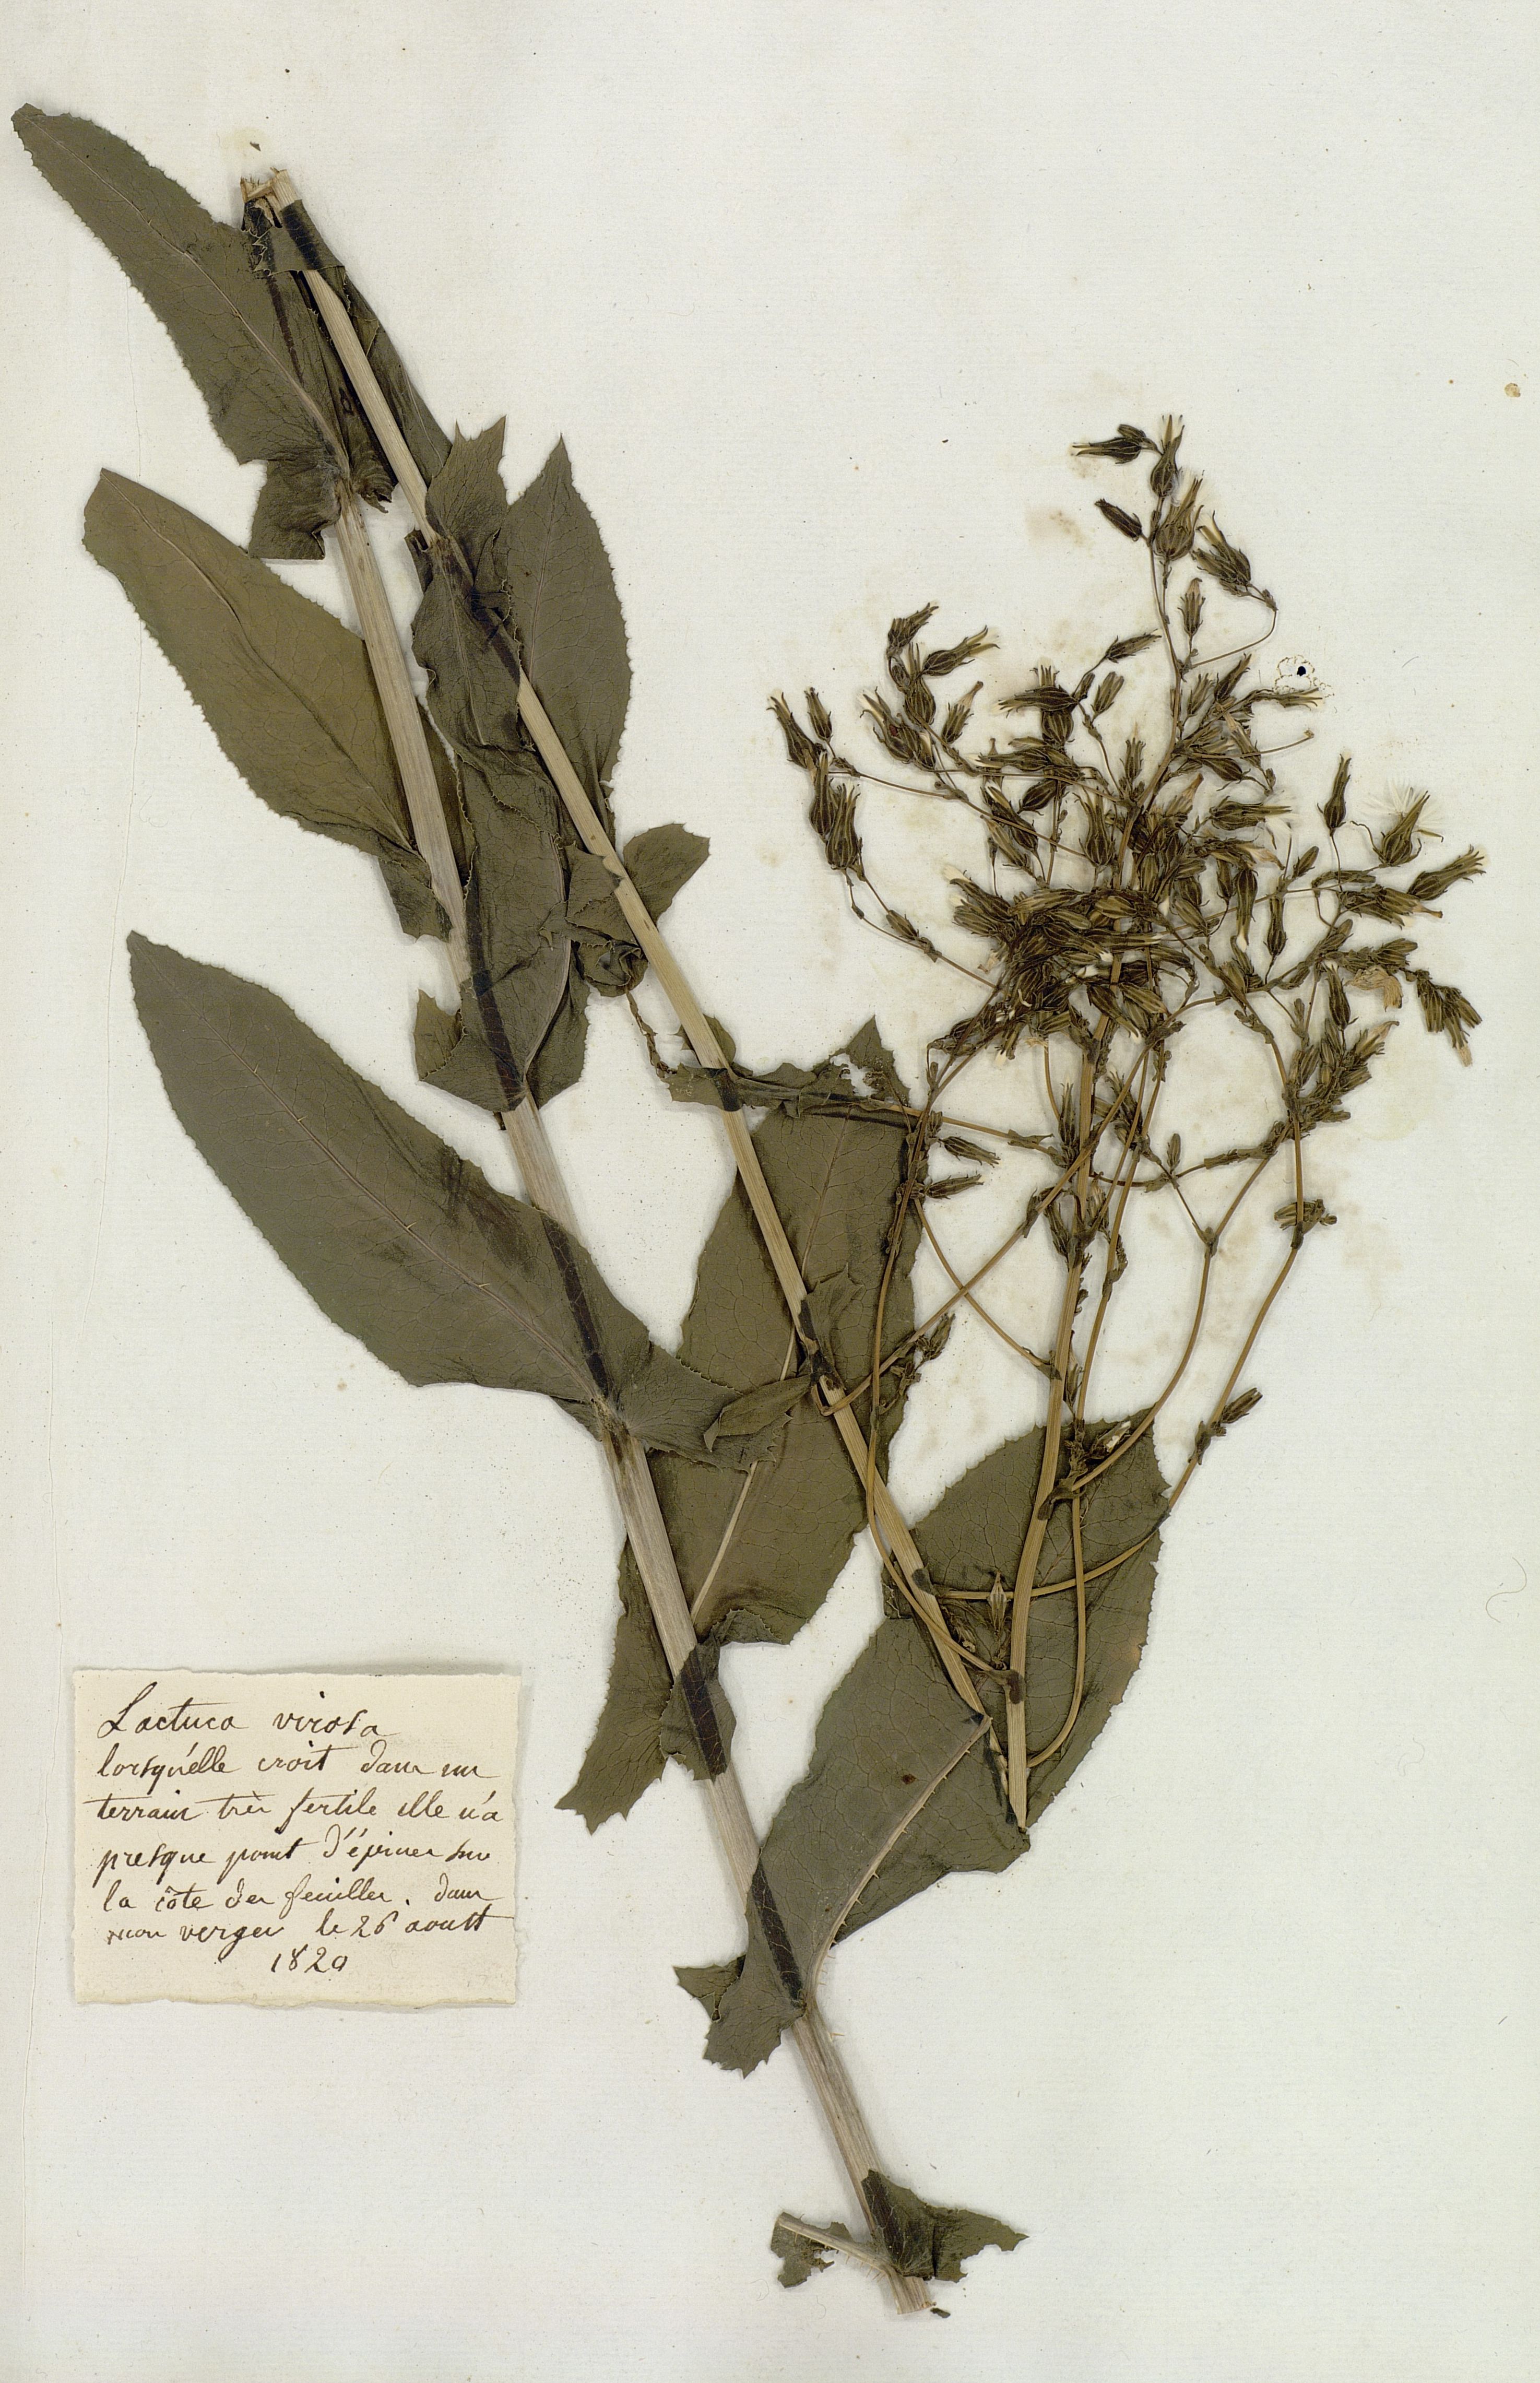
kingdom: Plantae
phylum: Tracheophyta
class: Magnoliopsida
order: Asterales
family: Asteraceae
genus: Lactuca
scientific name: Lactuca virosa
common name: Great lettuce
